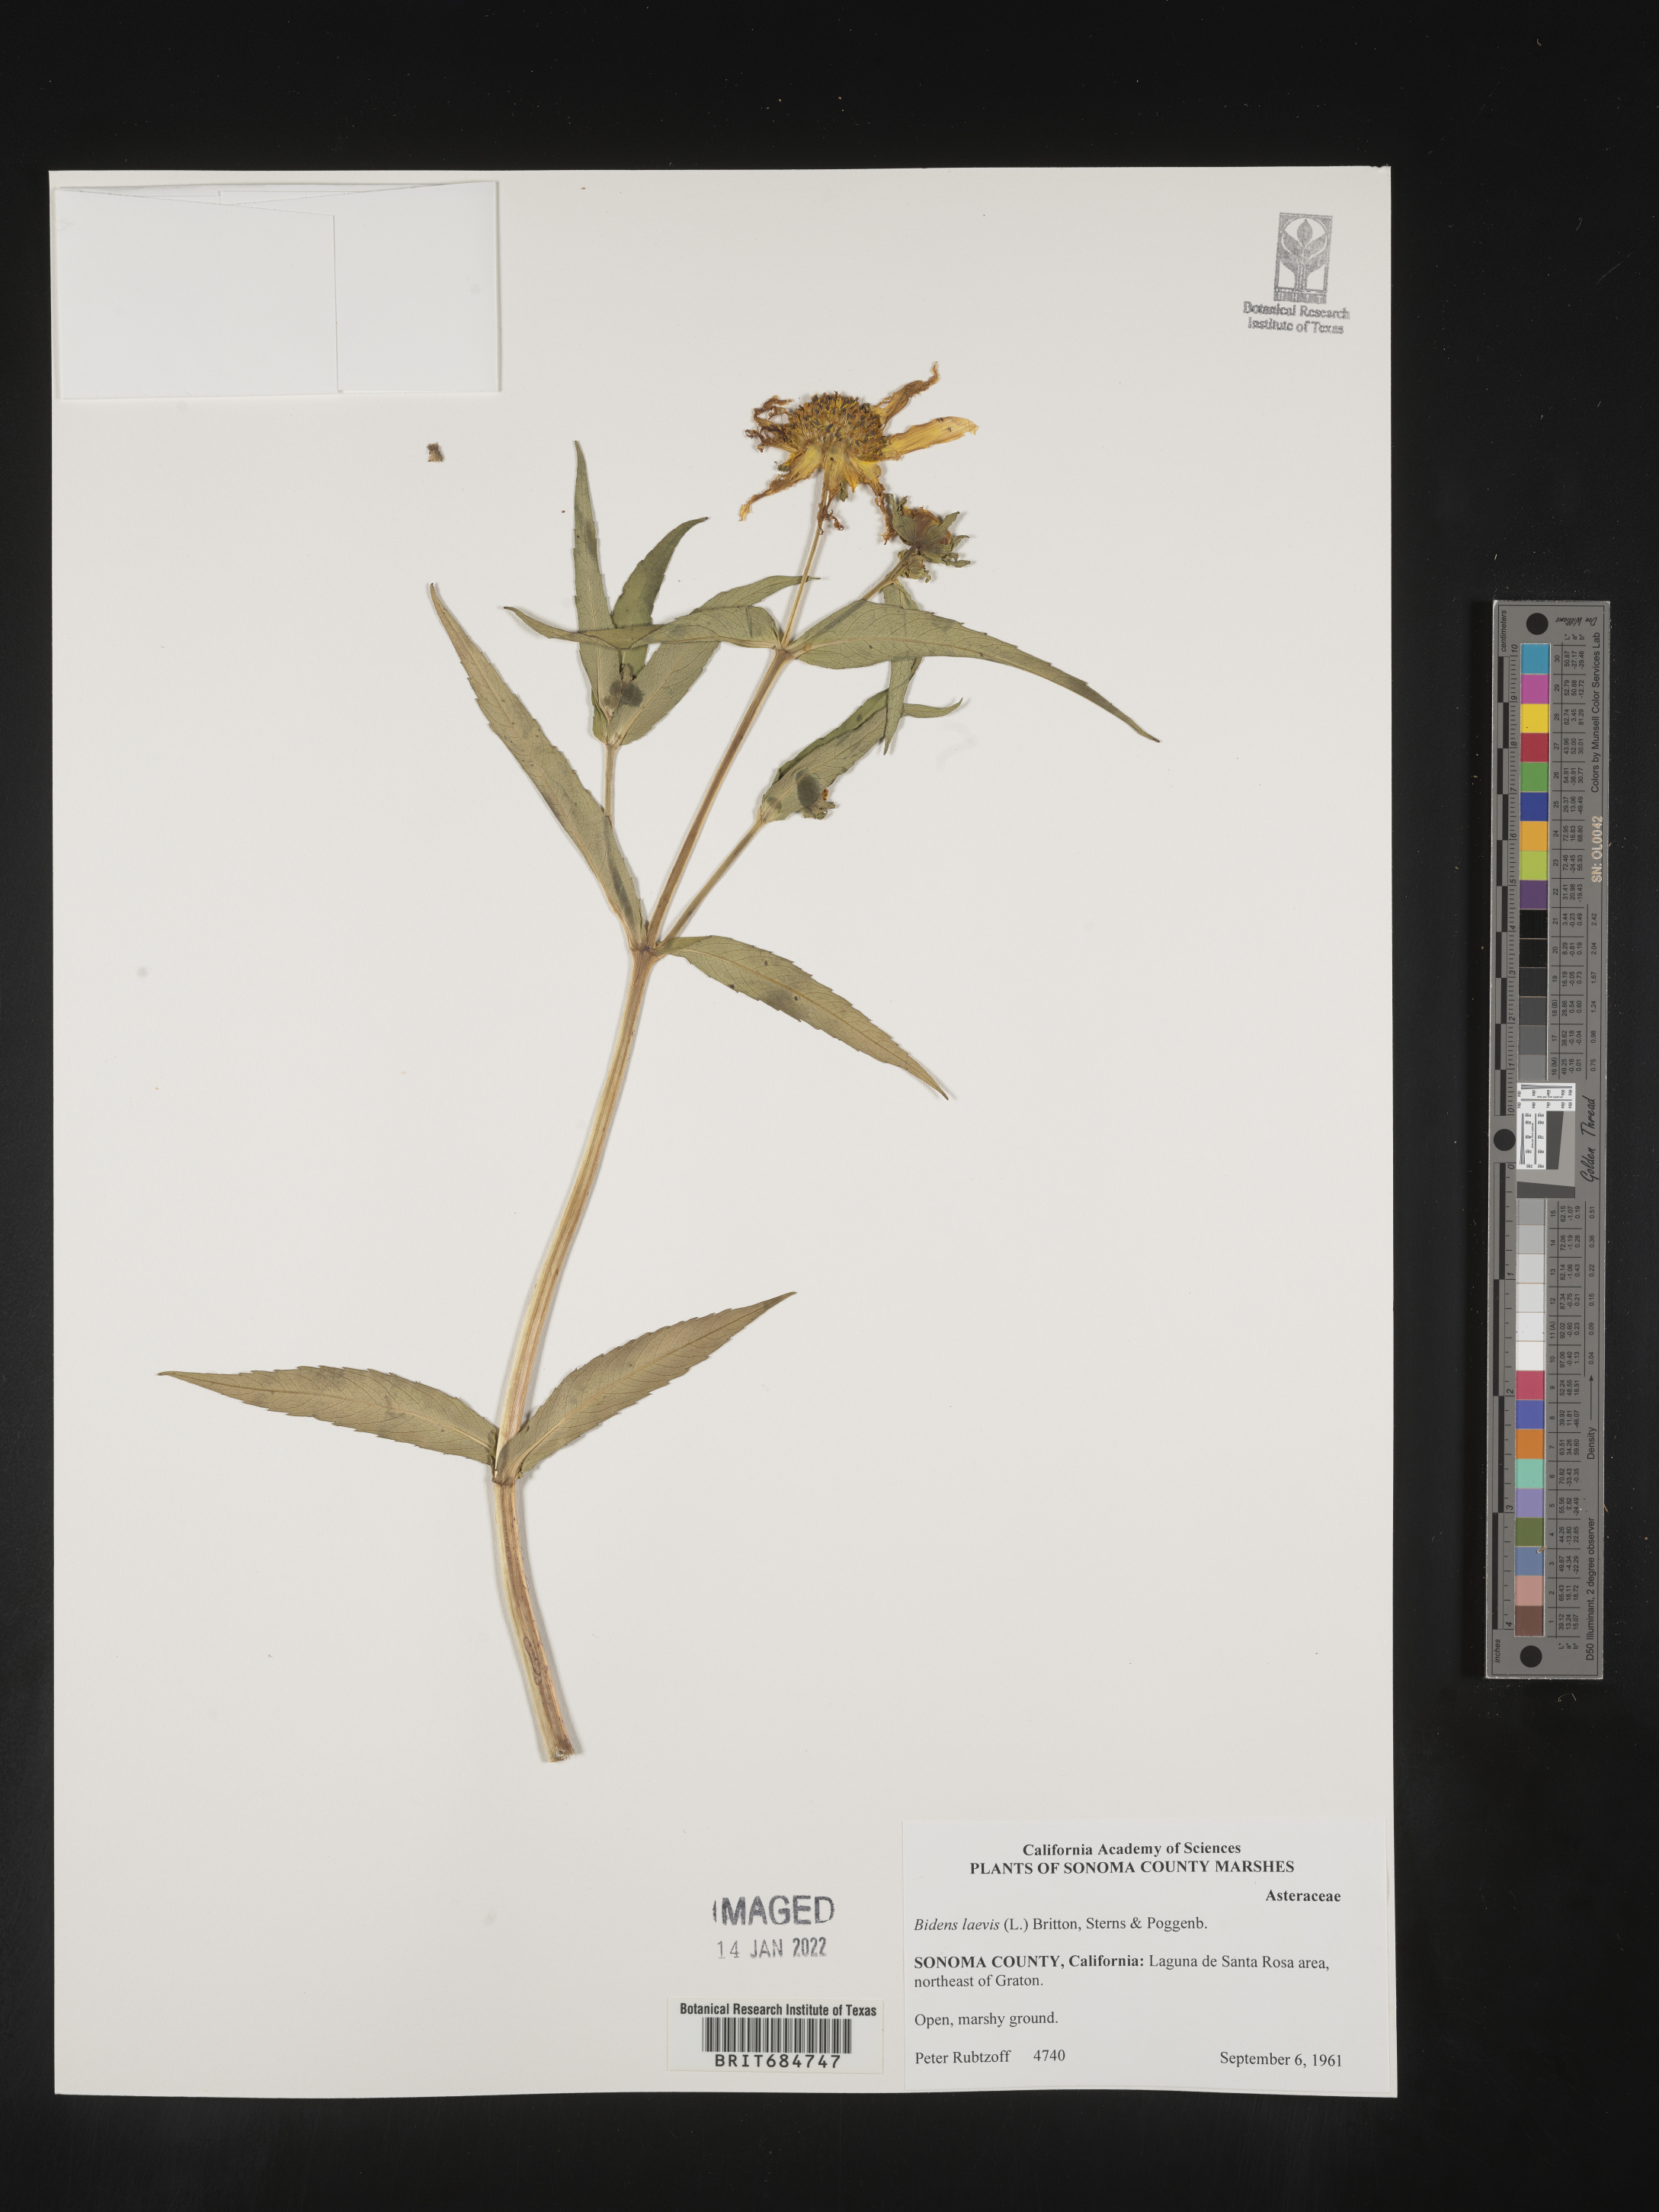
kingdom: Plantae
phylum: Tracheophyta
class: Magnoliopsida
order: Asterales
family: Asteraceae
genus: Bidens
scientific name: Bidens laevis
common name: Larger bur-marigold
